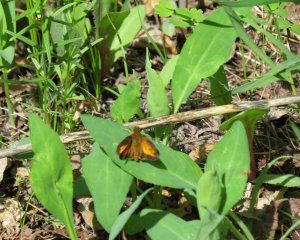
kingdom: Animalia
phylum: Arthropoda
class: Insecta
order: Lepidoptera
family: Hesperiidae
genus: Lon
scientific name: Lon hobomok
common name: Hobomok Skipper
